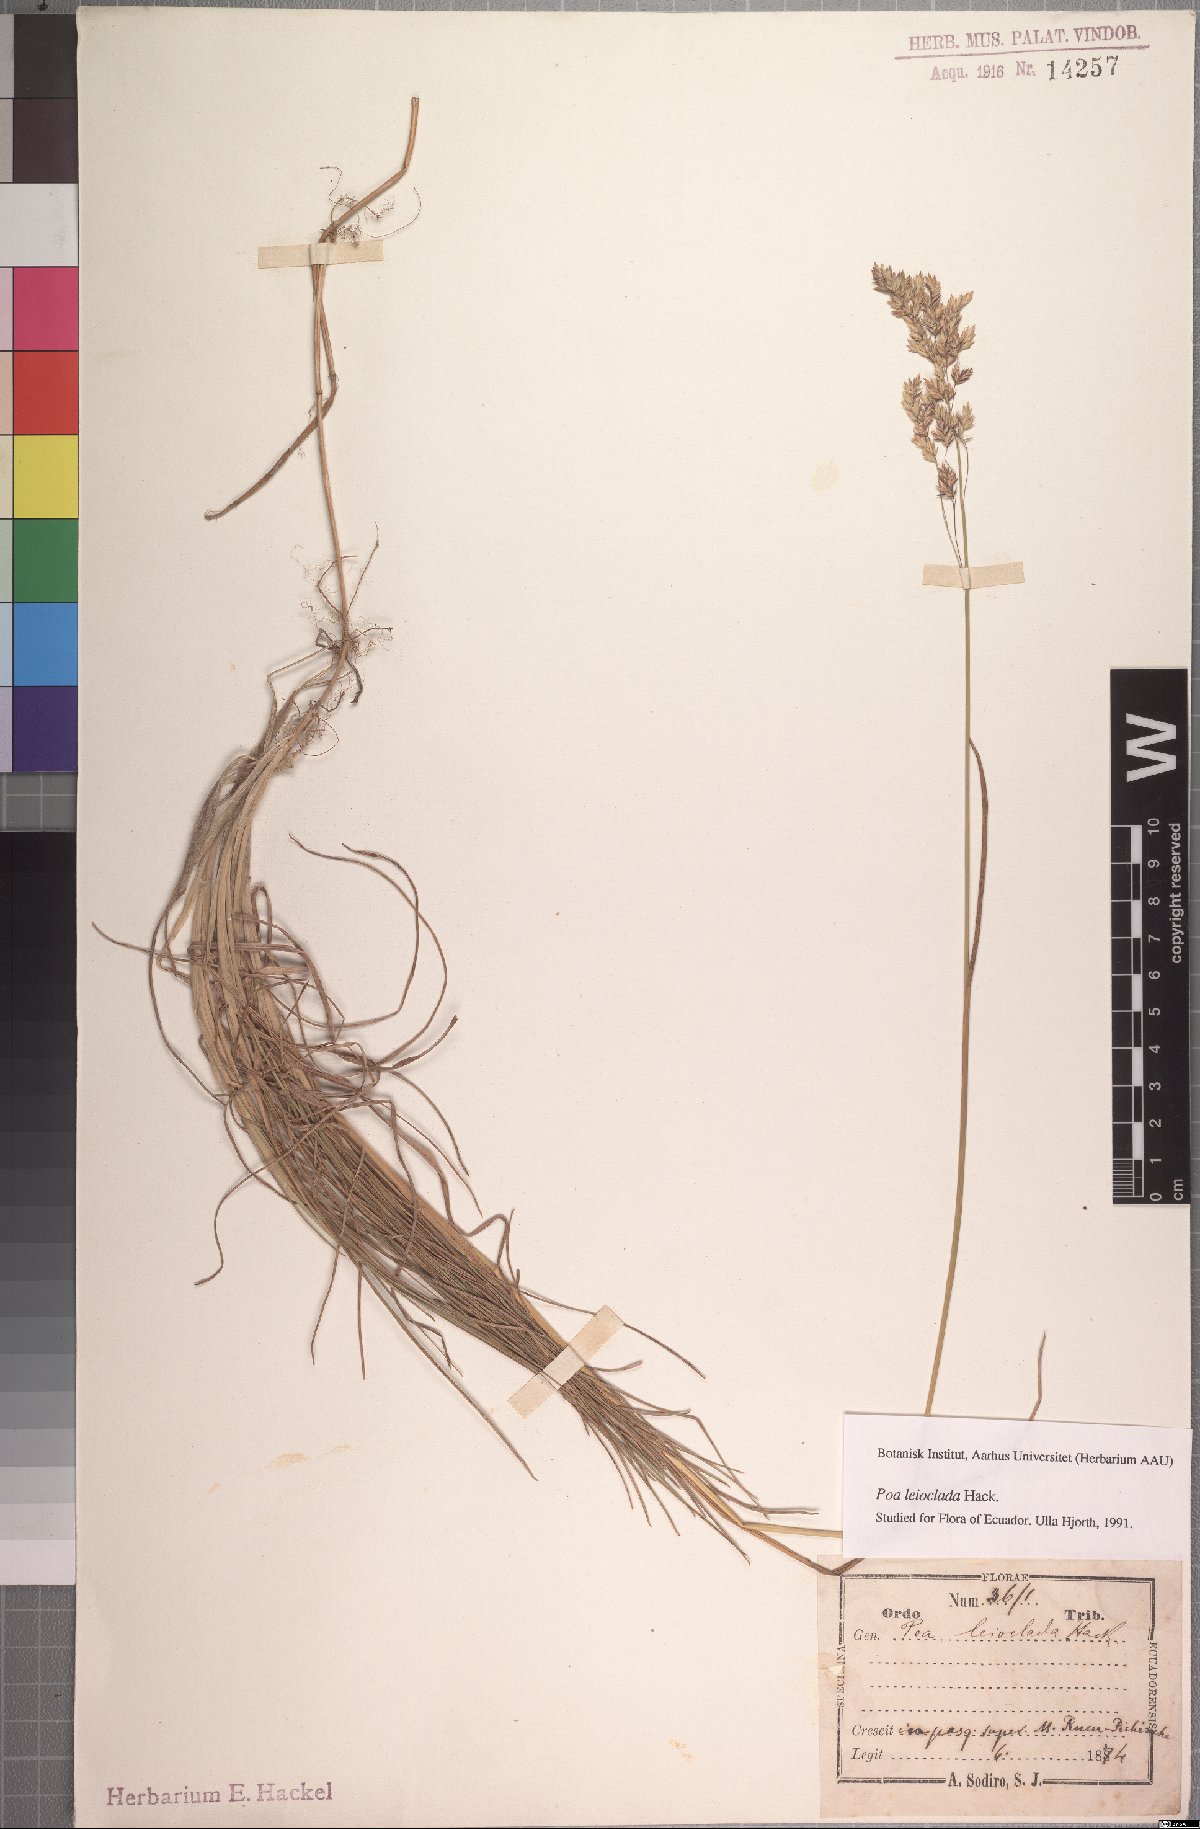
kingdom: Plantae
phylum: Tracheophyta
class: Liliopsida
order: Poales
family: Poaceae
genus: Poa
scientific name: Poa mulalensis
